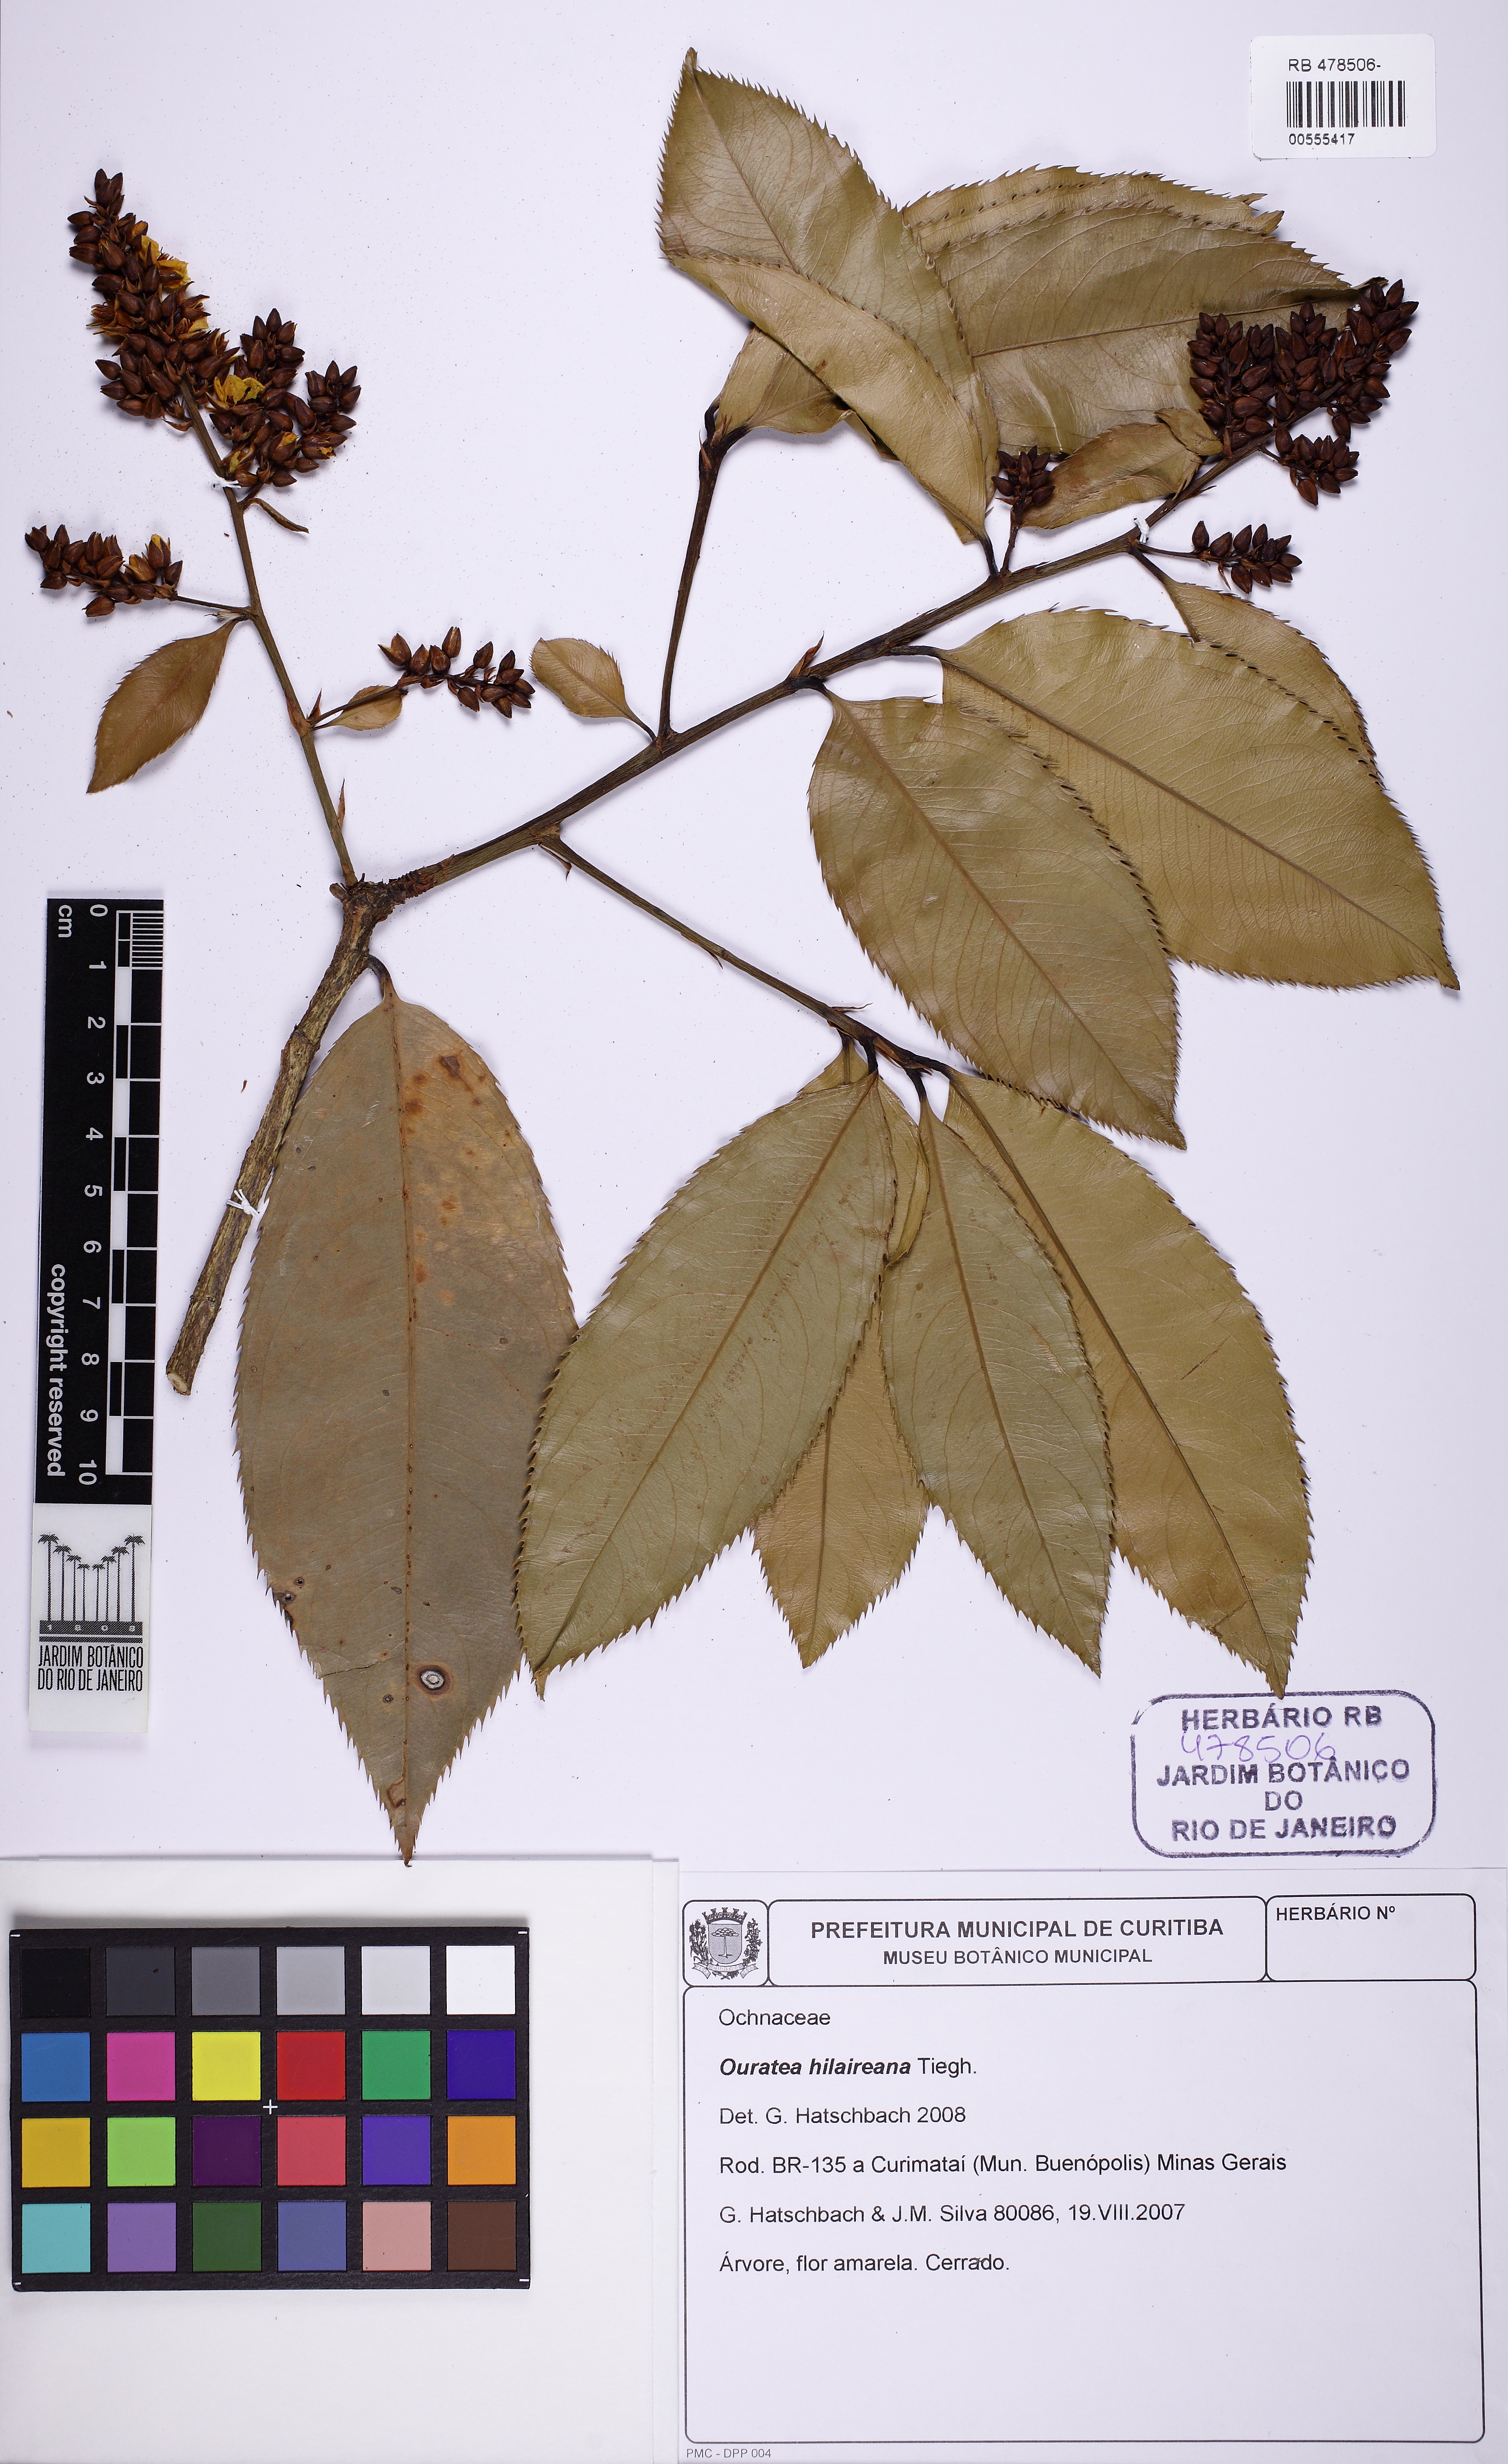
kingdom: Plantae
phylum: Tracheophyta
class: Magnoliopsida
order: Malpighiales
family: Ochnaceae
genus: Ouratea
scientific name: Ouratea hilaireana
